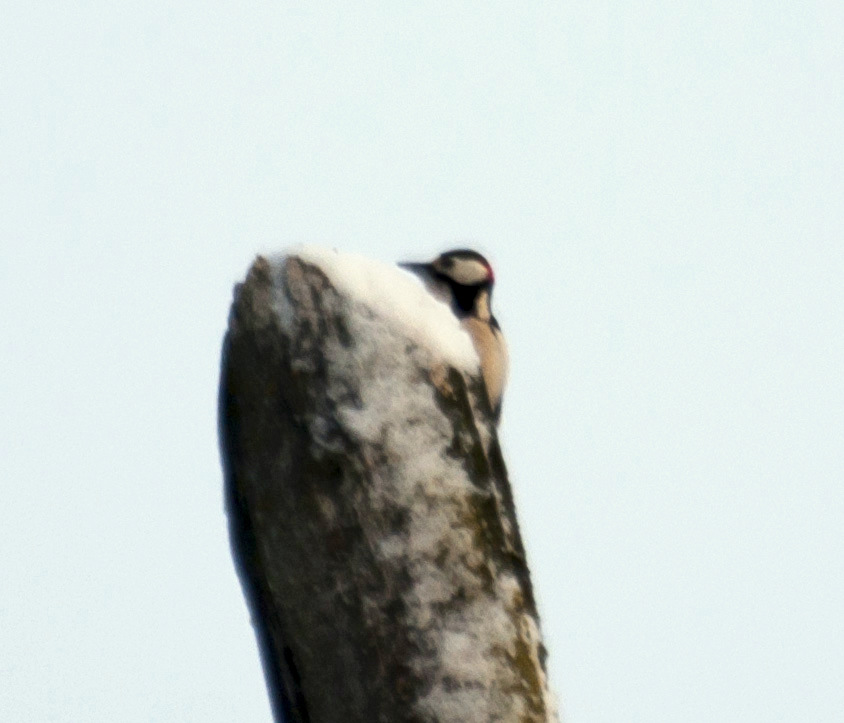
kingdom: Animalia
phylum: Chordata
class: Aves
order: Piciformes
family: Picidae
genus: Dendrocopos
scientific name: Dendrocopos major
